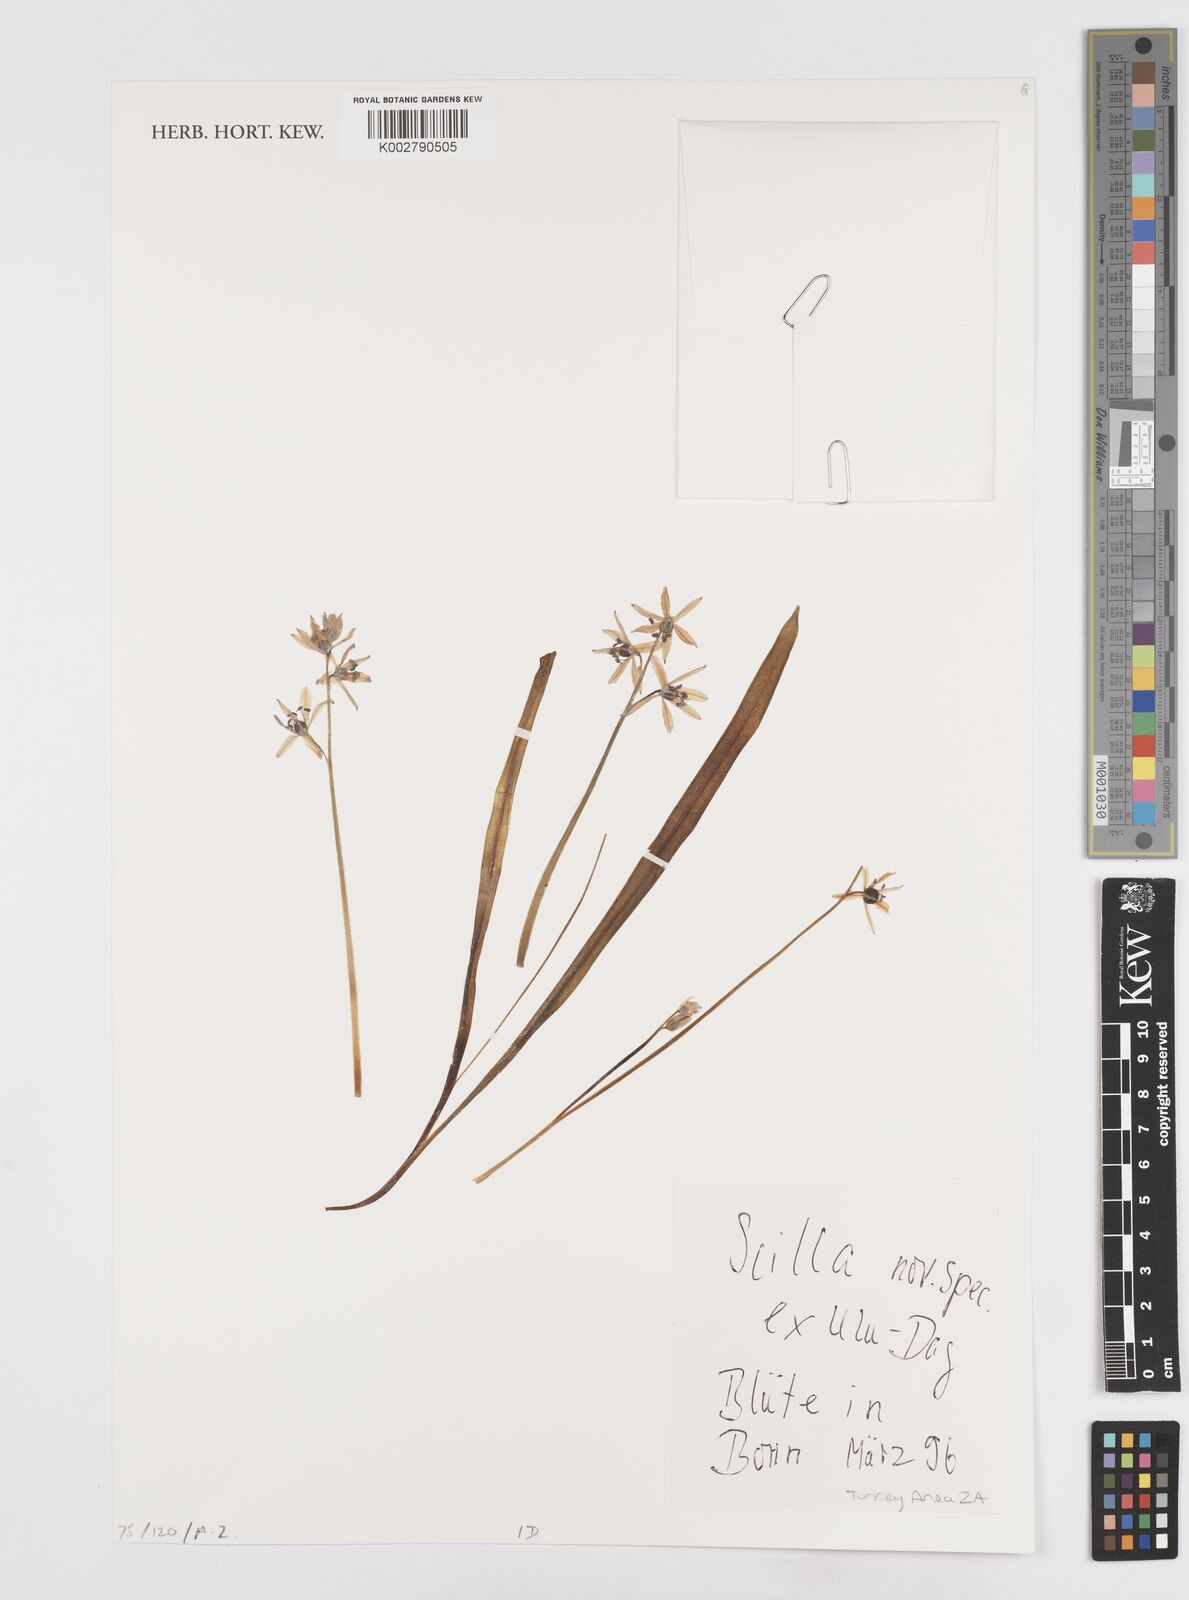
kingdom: Plantae
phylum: Tracheophyta
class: Liliopsida
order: Asparagales
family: Asparagaceae
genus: Scilla
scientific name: Scilla
